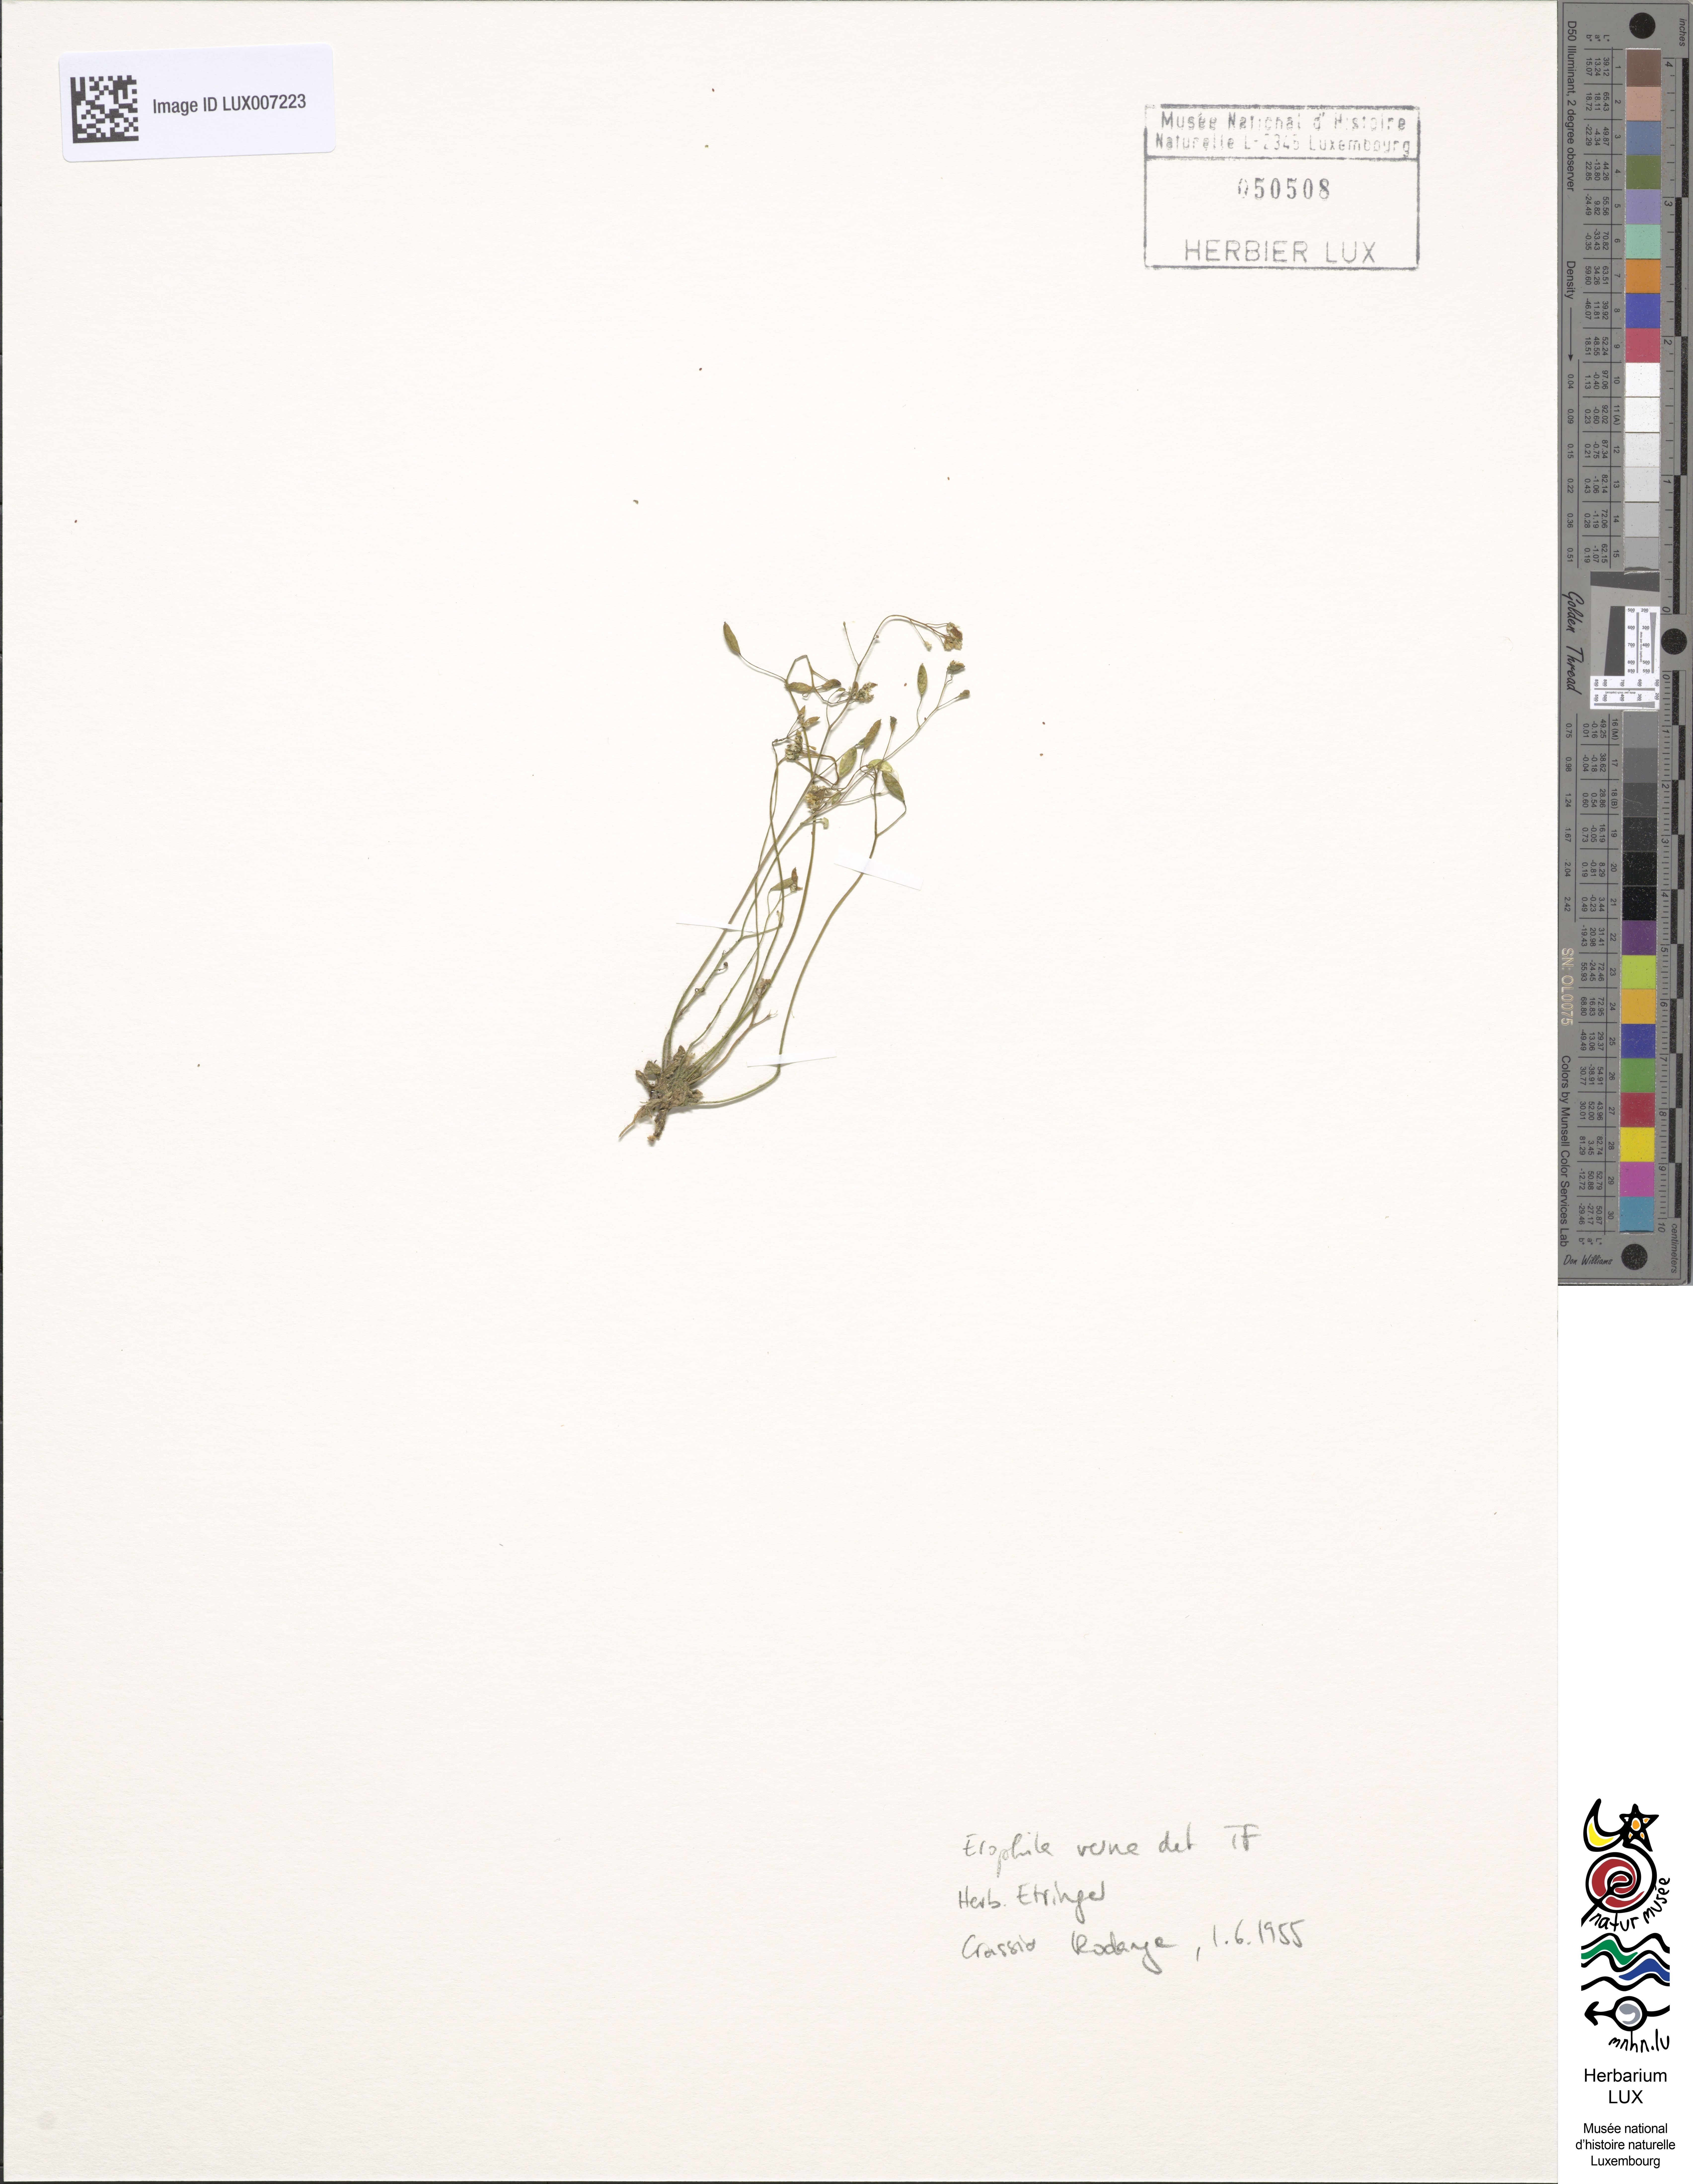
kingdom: Plantae
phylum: Tracheophyta
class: Magnoliopsida
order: Brassicales
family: Brassicaceae
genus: Draba
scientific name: Draba verna
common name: Spring draba
